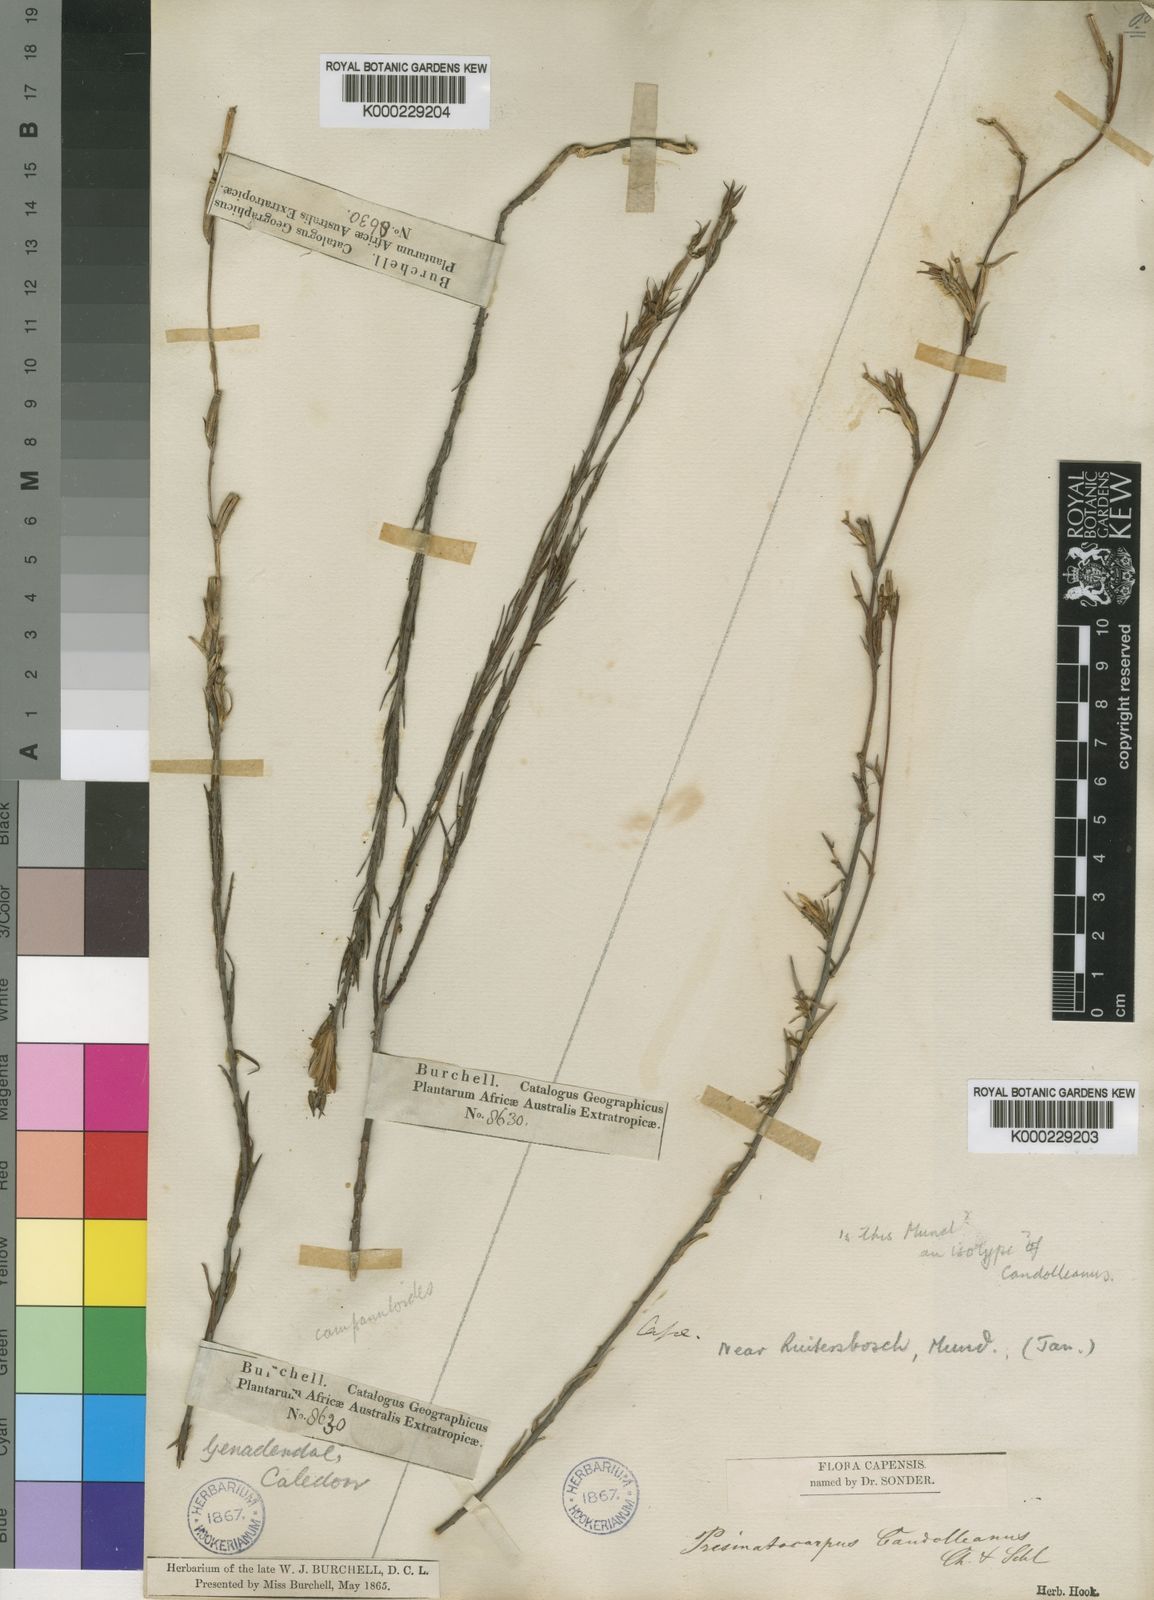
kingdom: Plantae
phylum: Tracheophyta
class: Magnoliopsida
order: Asterales
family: Campanulaceae
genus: Prismatocarpus
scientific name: Prismatocarpus candolleanus
